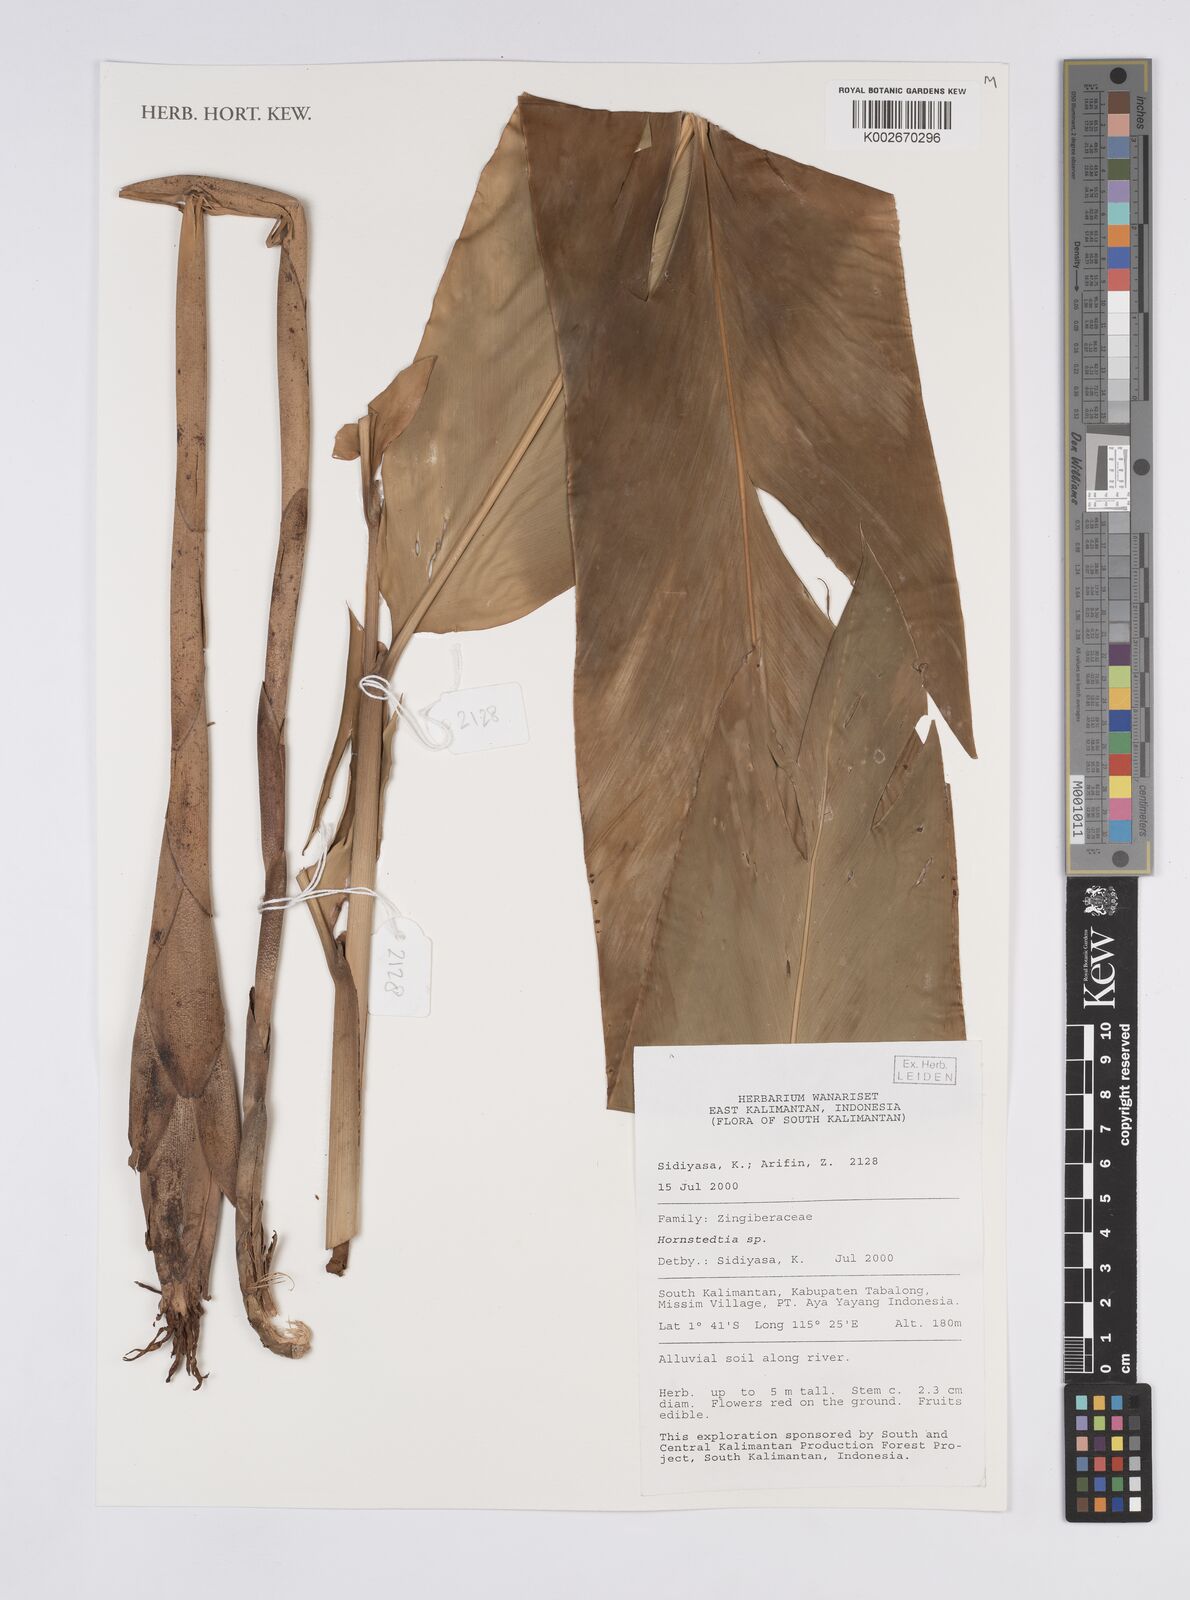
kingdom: Plantae
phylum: Tracheophyta
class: Liliopsida
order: Zingiberales
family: Zingiberaceae
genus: Hornstedtia
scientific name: Hornstedtia
